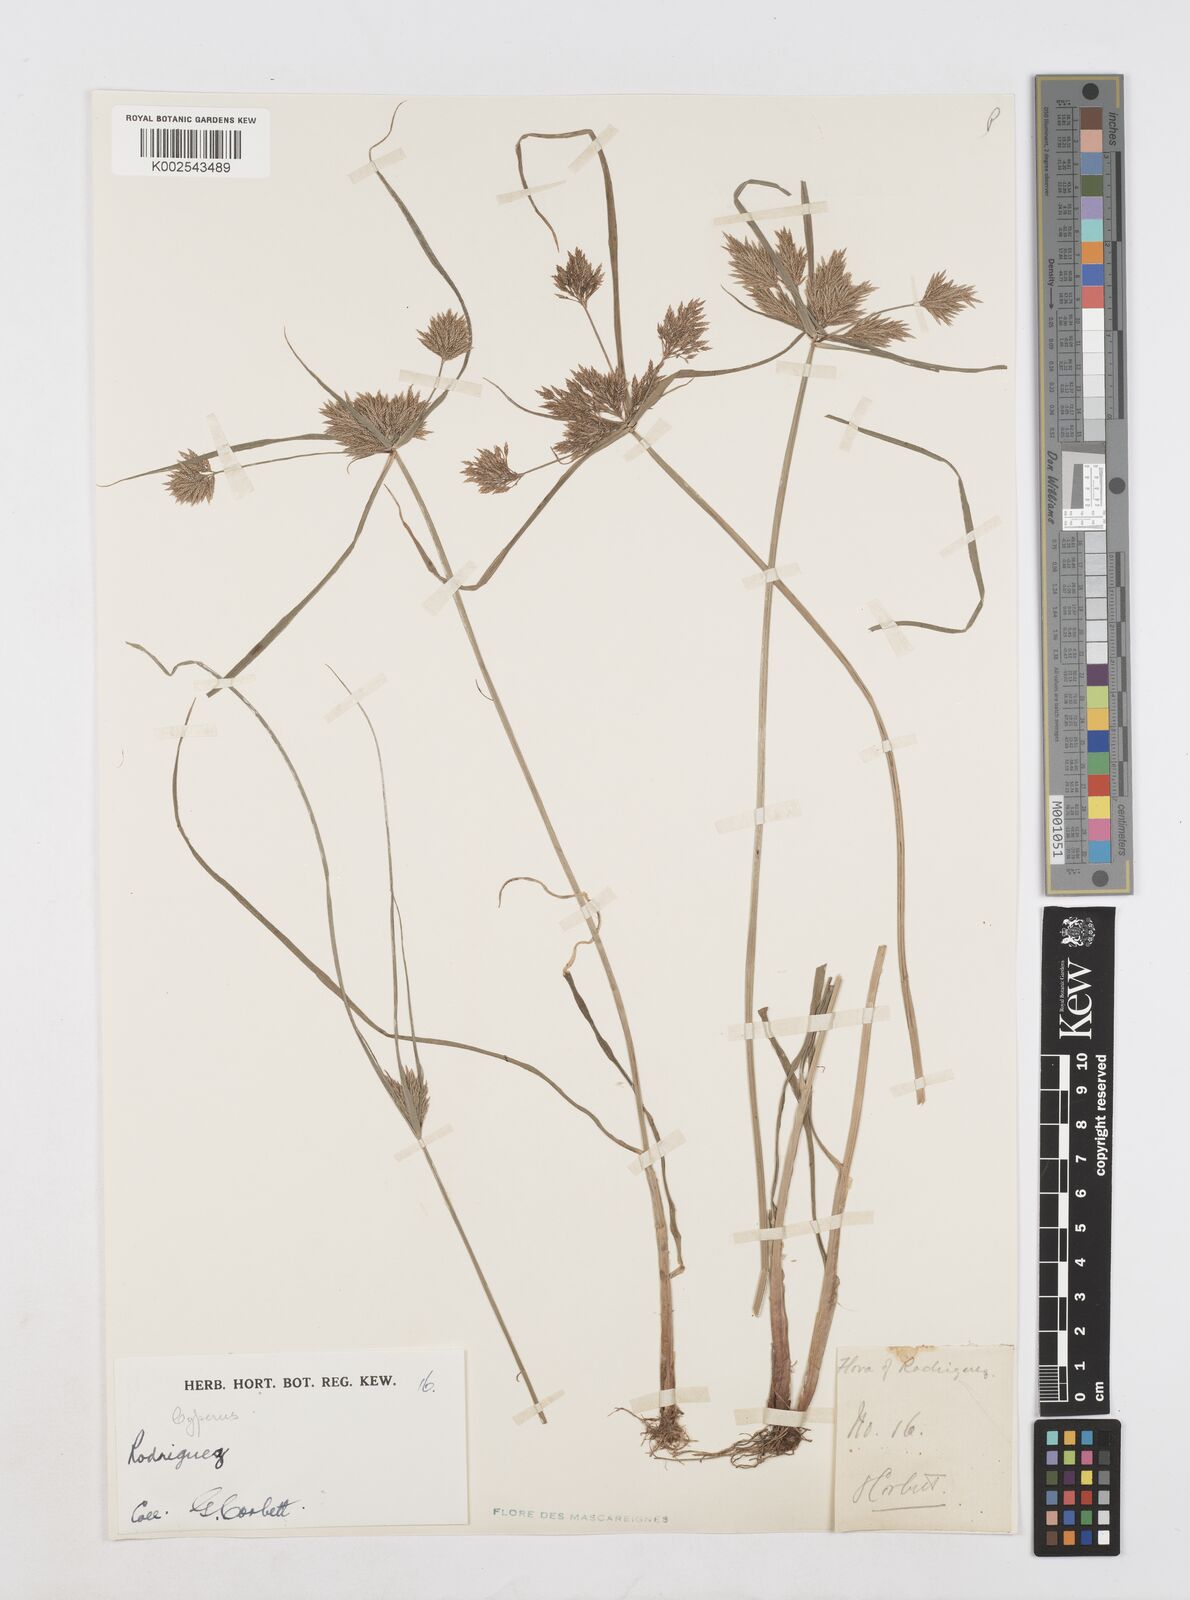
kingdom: Plantae
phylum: Tracheophyta
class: Liliopsida
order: Poales
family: Cyperaceae
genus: Cyperus
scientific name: Cyperus polystachyos
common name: Bunchy flat sedge
